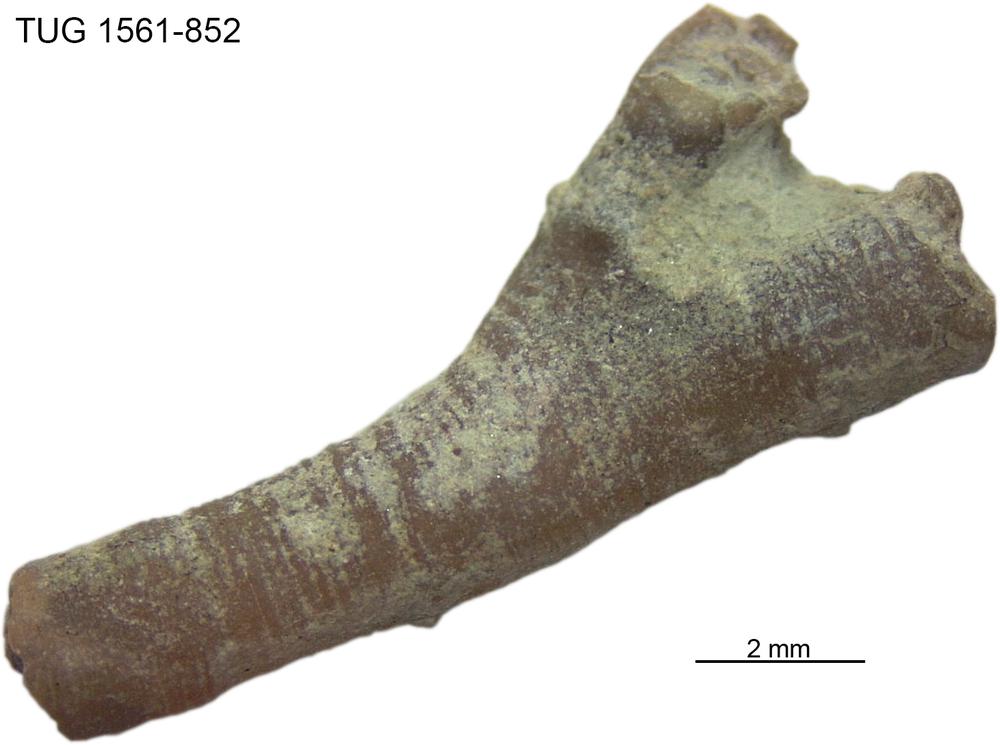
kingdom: Animalia
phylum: Bryozoa
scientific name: Bryozoa
